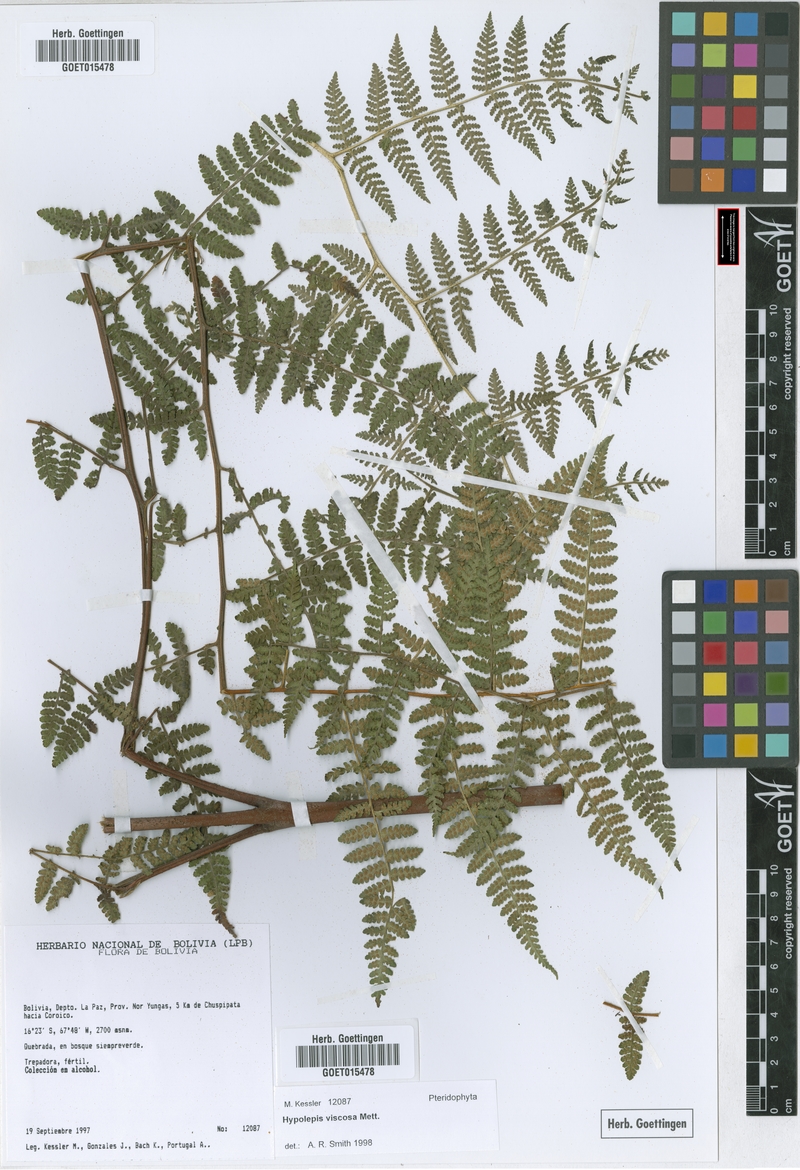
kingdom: Plantae
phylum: Tracheophyta
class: Polypodiopsida
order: Polypodiales
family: Dennstaedtiaceae
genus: Hypolepis
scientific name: Hypolepis periculosa
